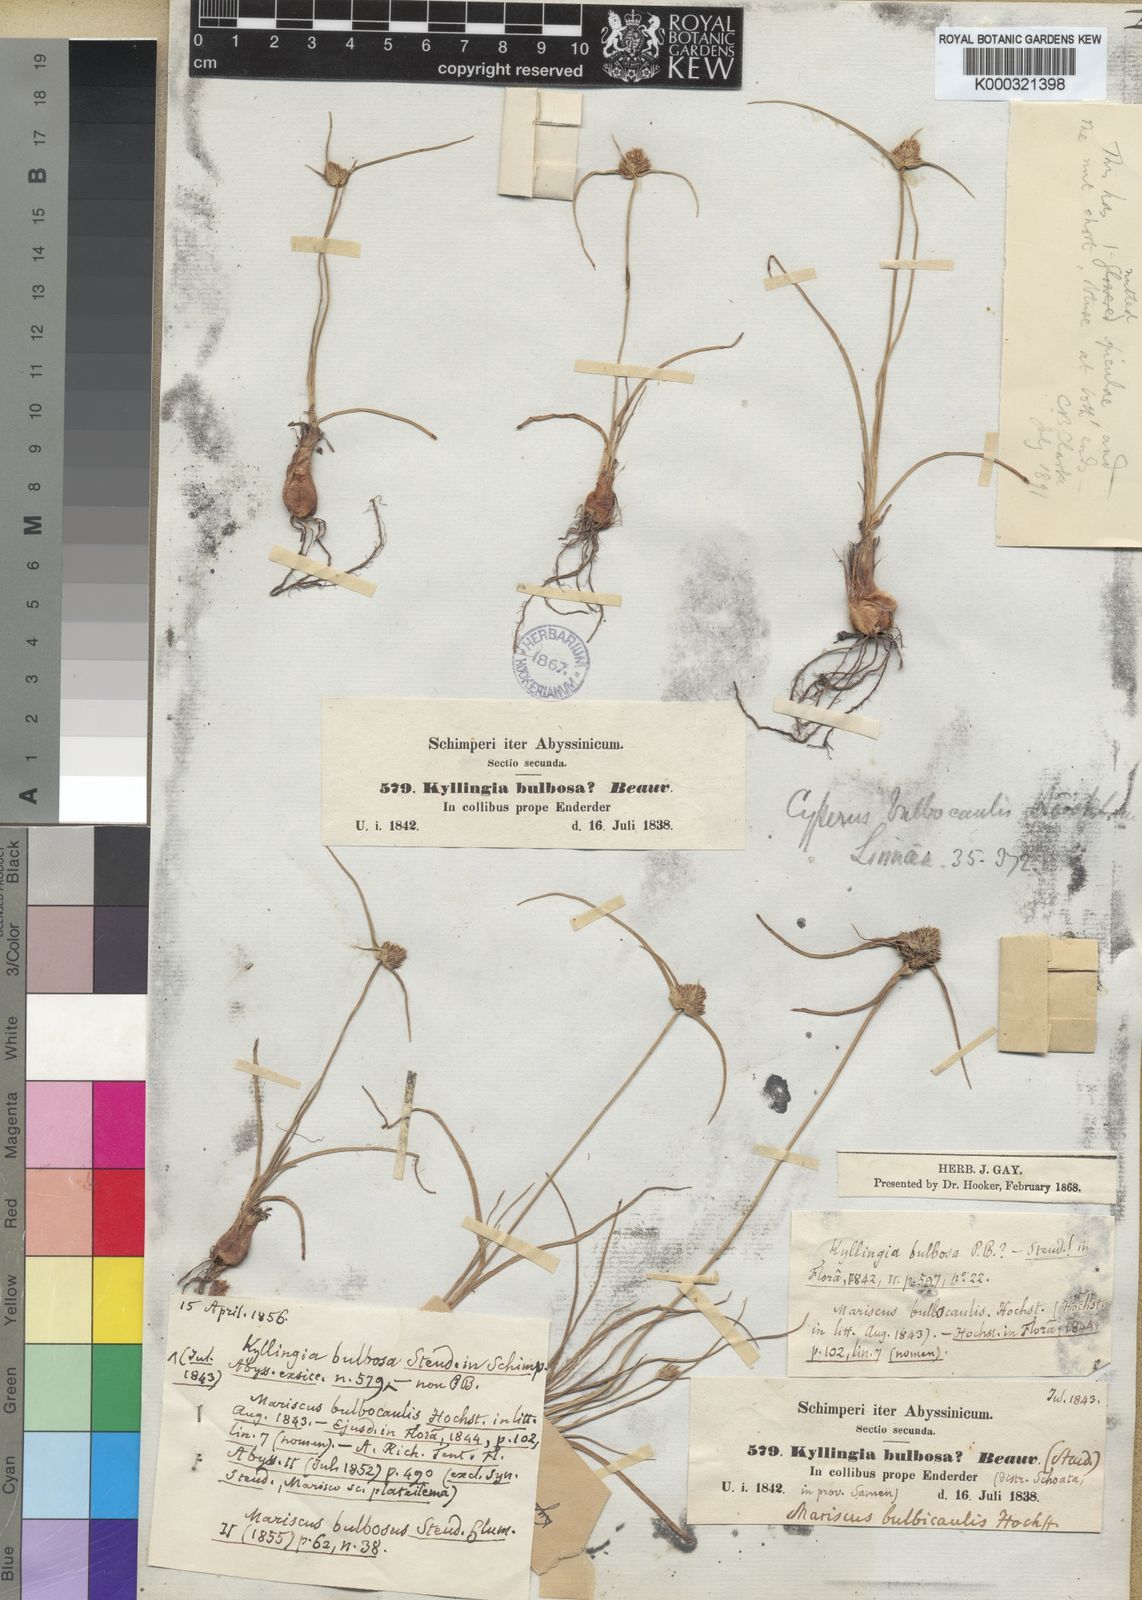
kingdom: Plantae
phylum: Tracheophyta
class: Liliopsida
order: Poales
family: Cyperaceae
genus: Cyperus
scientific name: Cyperus
